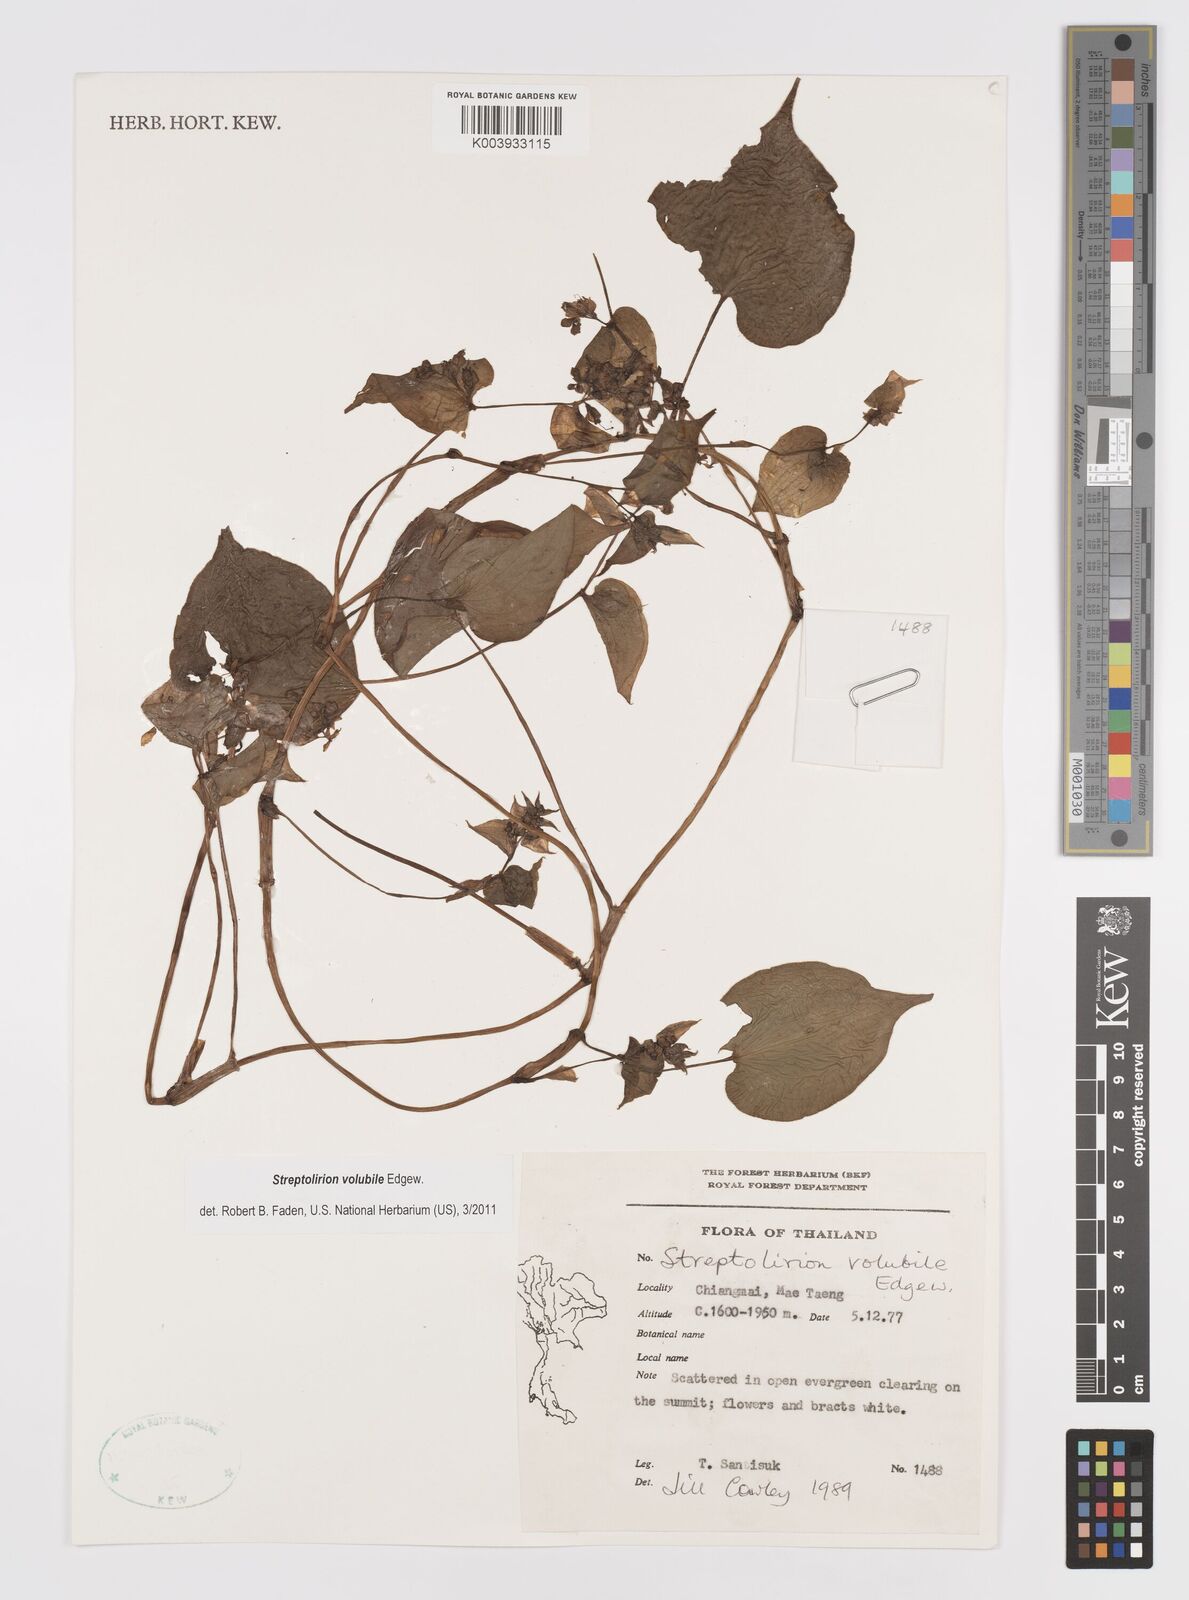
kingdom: Plantae
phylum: Tracheophyta
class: Liliopsida
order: Commelinales
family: Commelinaceae
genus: Streptolirion
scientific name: Streptolirion volubile
